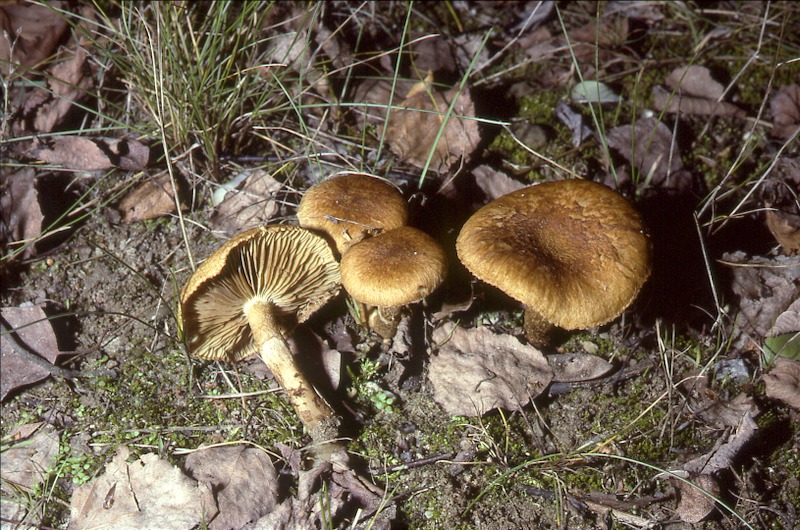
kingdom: Fungi
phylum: Basidiomycota
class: Agaricomycetes
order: Agaricales
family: Inocybaceae
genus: Inocybe
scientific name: Inocybe dulcamara
